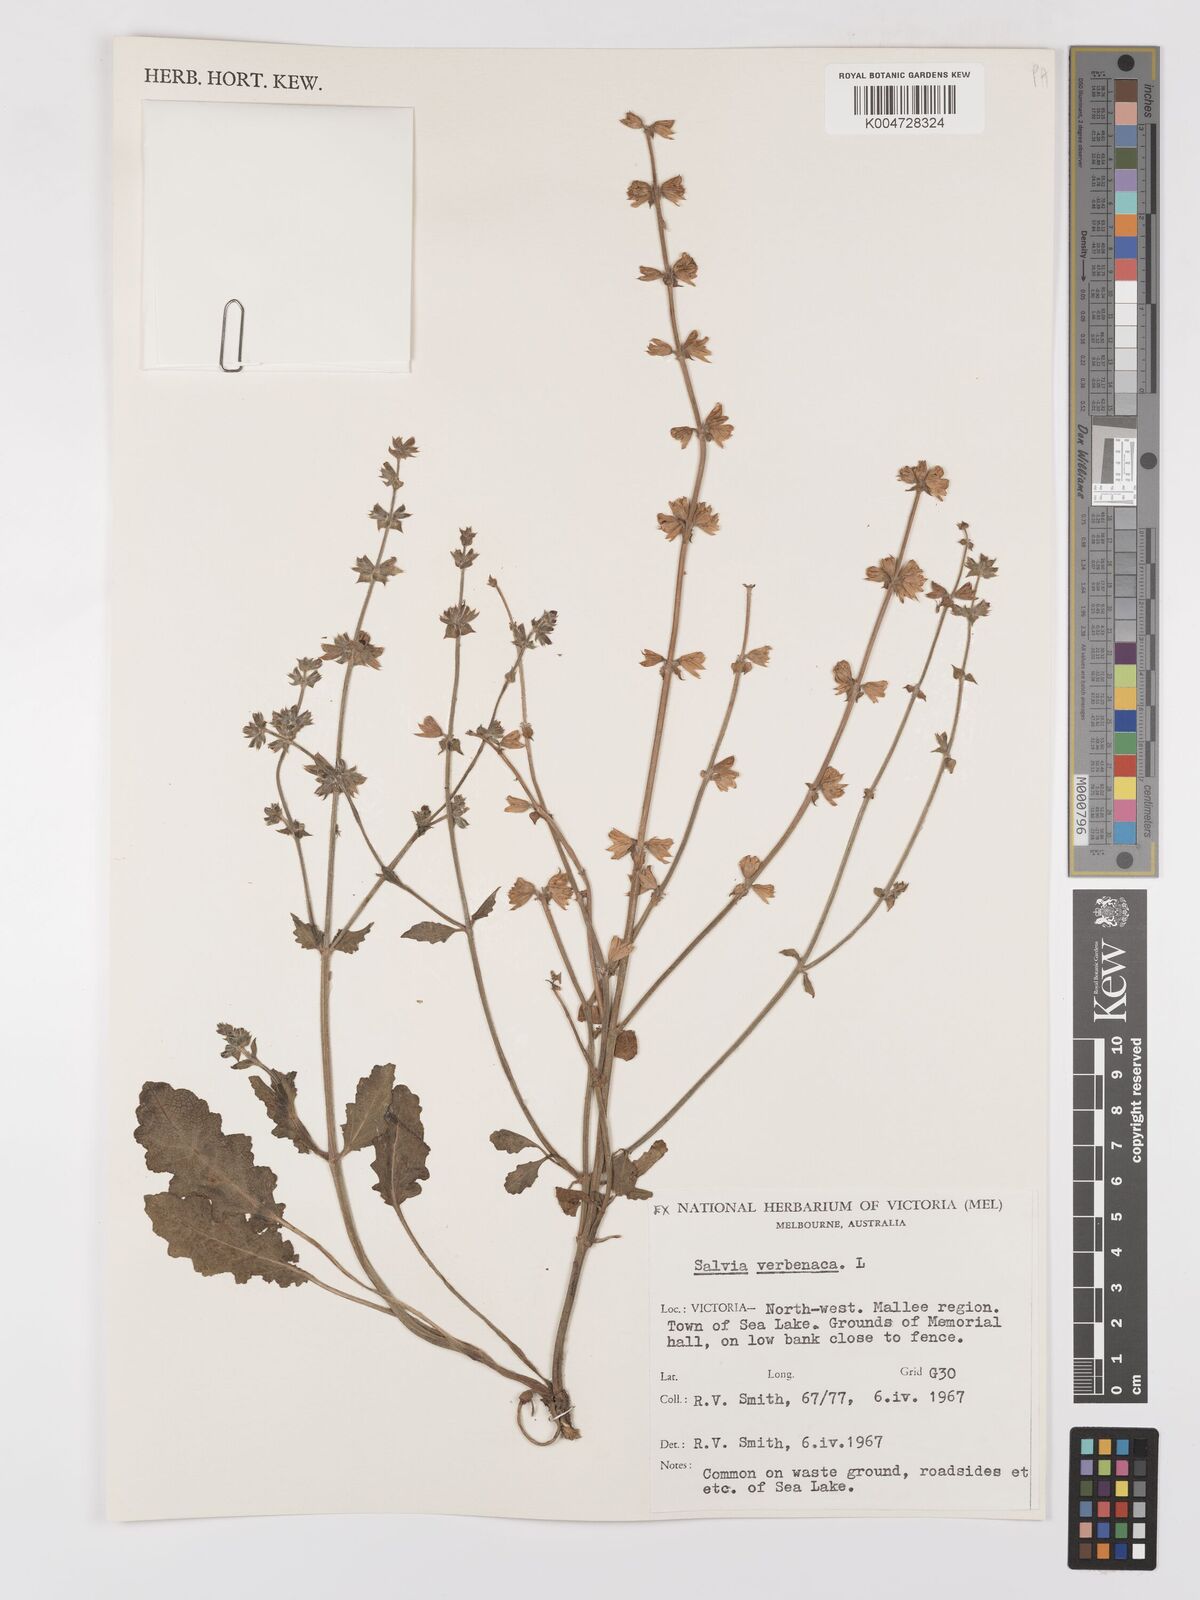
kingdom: Plantae
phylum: Tracheophyta
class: Magnoliopsida
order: Lamiales
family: Lamiaceae
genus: Salvia
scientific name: Salvia verbenaca
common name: Wild clary
